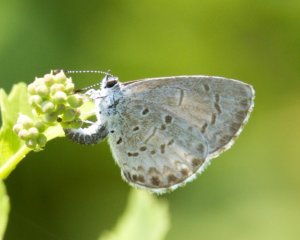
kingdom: Animalia
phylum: Arthropoda
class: Insecta
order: Lepidoptera
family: Lycaenidae
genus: Celastrina
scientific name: Celastrina
